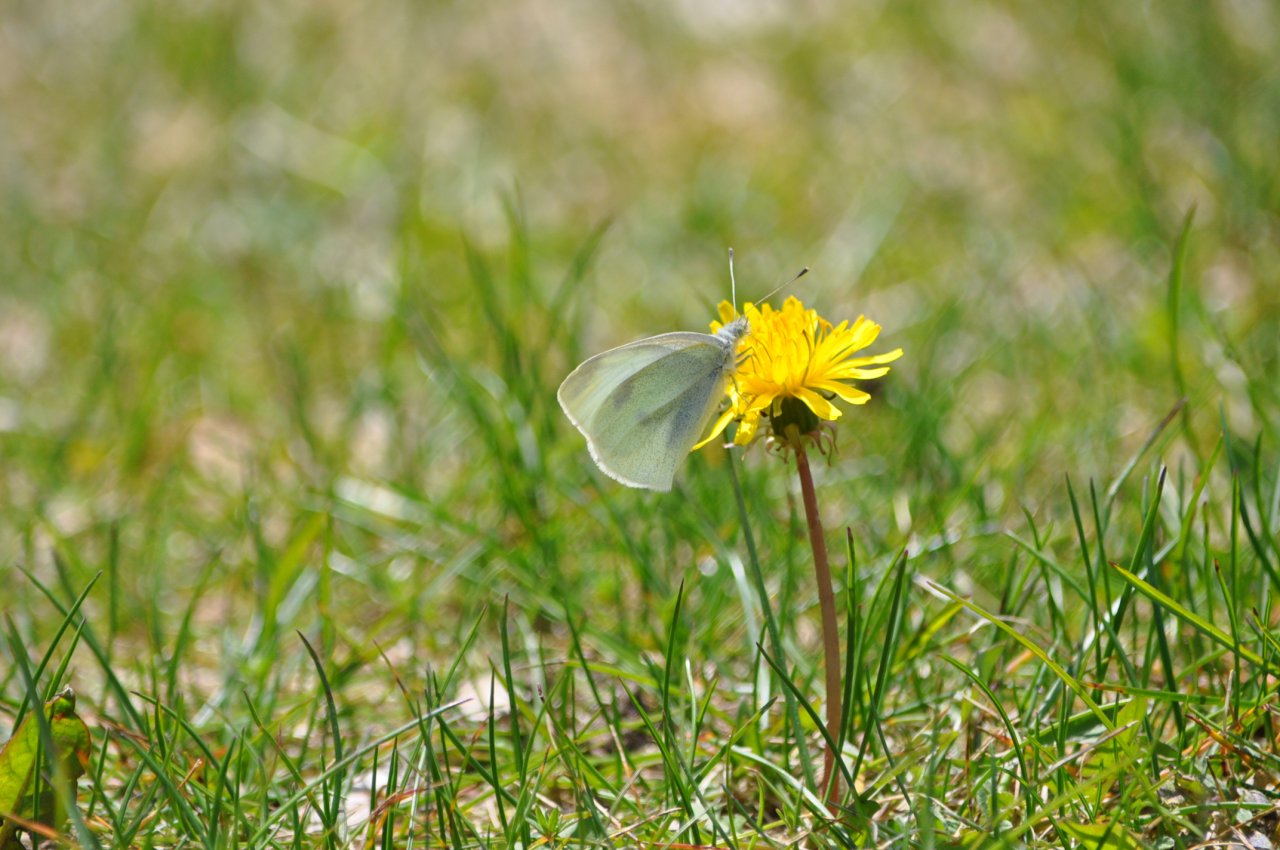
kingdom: Animalia
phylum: Arthropoda
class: Insecta
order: Lepidoptera
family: Pieridae
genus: Pieris
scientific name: Pieris rapae
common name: Cabbage White
